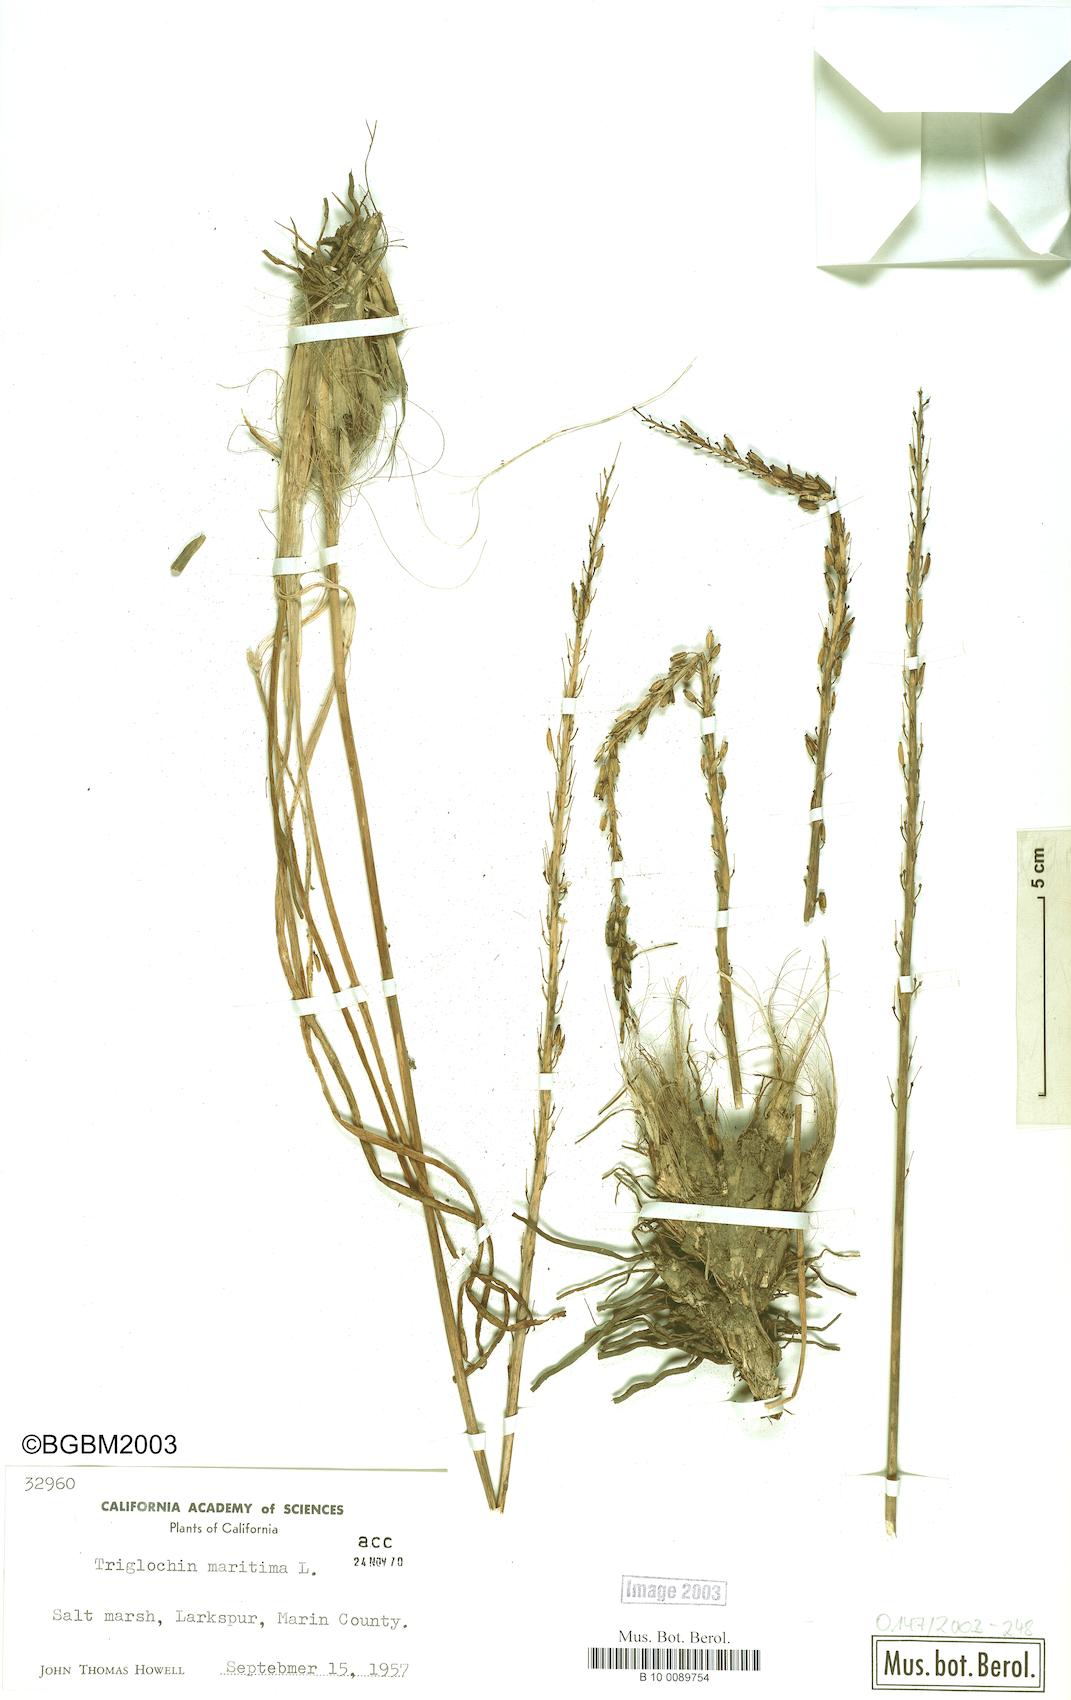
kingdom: Plantae
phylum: Tracheophyta
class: Liliopsida
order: Alismatales
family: Juncaginaceae
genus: Triglochin
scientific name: Triglochin maritima
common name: Sea arrowgrass
